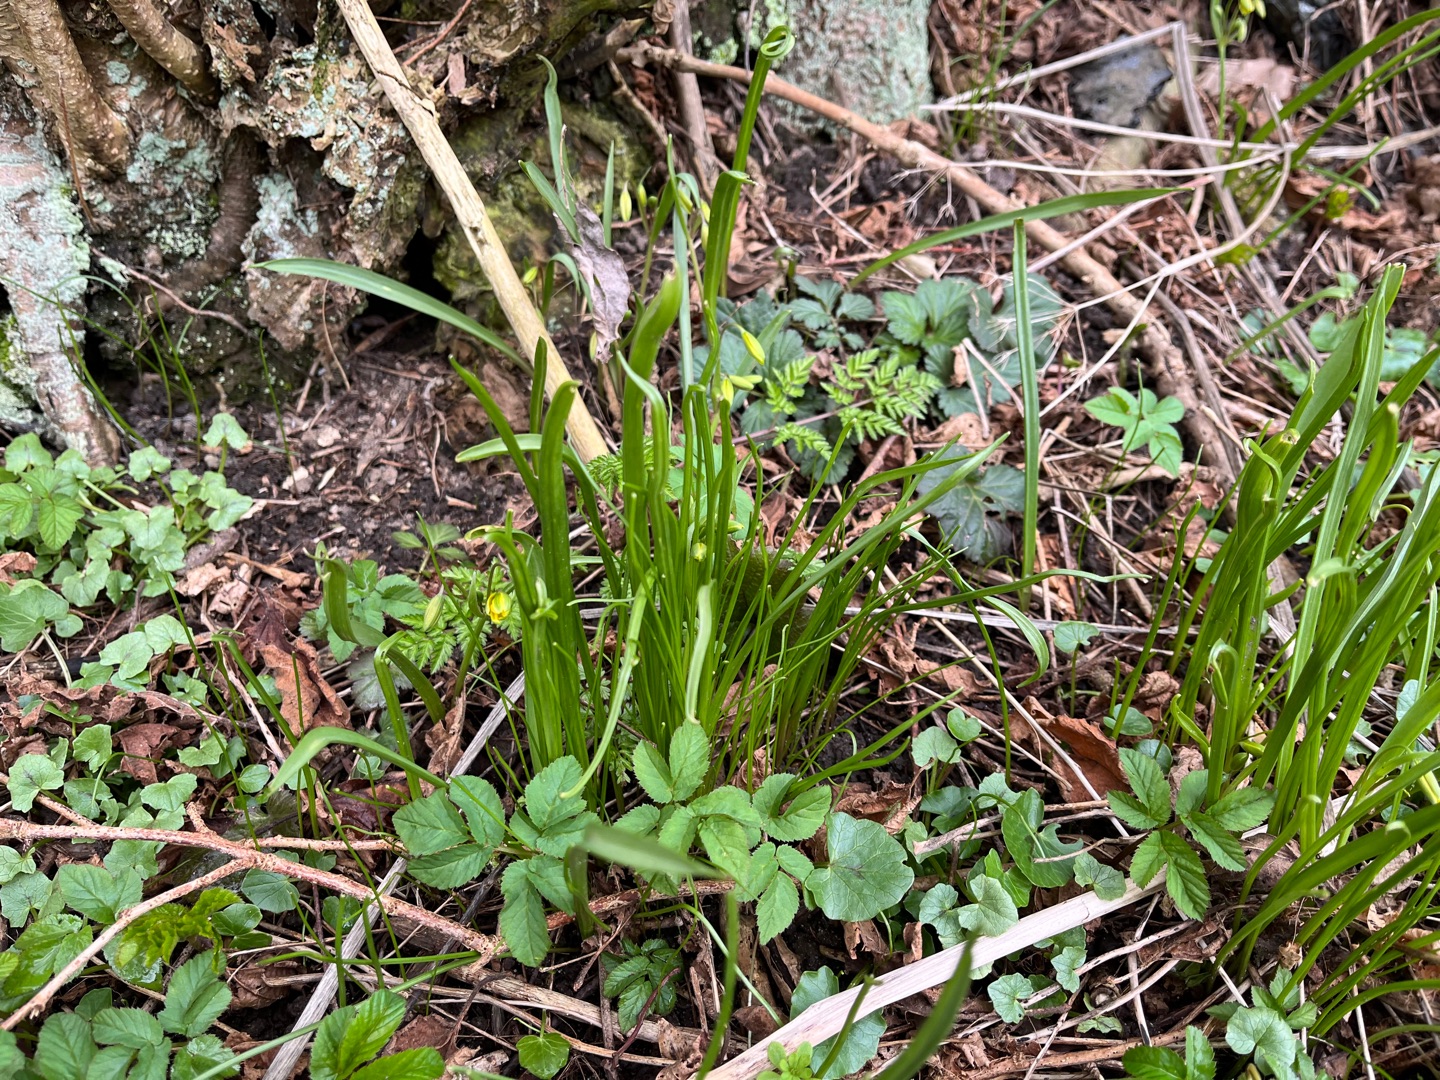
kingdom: Plantae
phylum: Tracheophyta
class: Liliopsida
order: Liliales
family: Liliaceae
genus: Gagea
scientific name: Gagea lutea
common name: Almindelig guldstjerne
